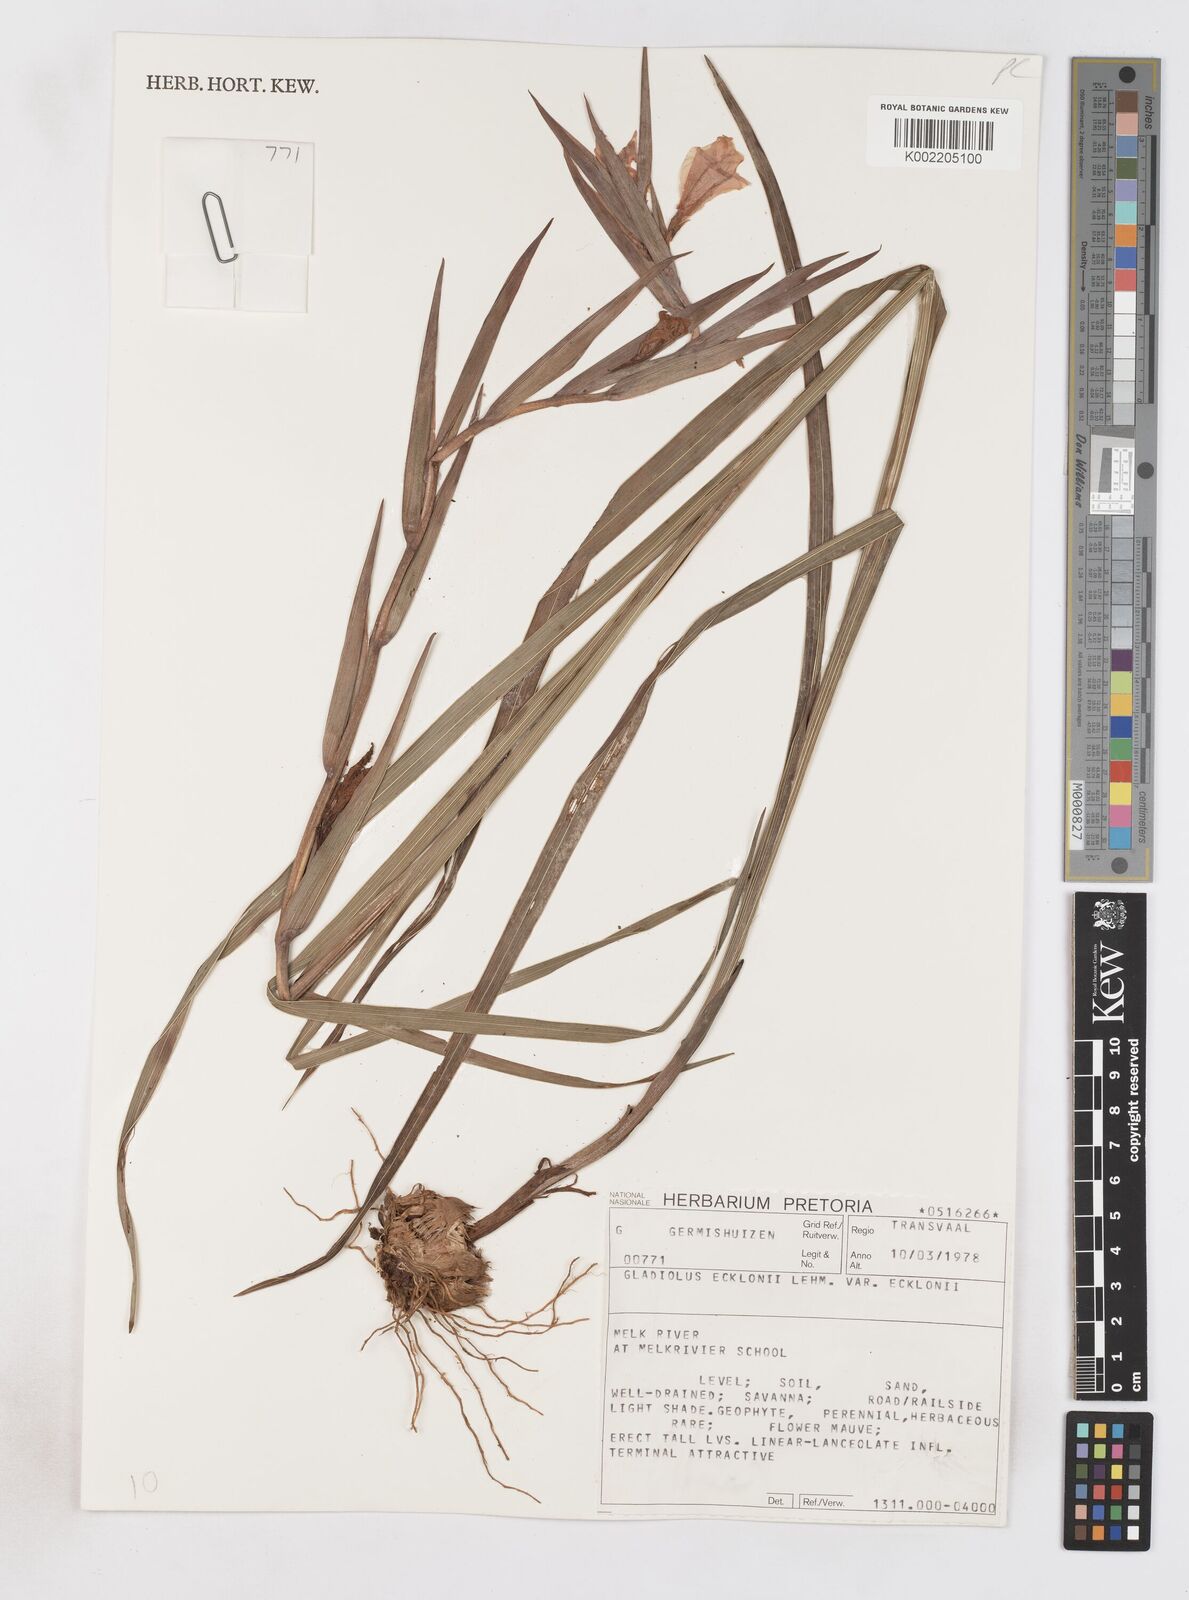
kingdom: Plantae
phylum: Tracheophyta
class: Liliopsida
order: Asparagales
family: Iridaceae
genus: Gladiolus
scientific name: Gladiolus rehmannii
